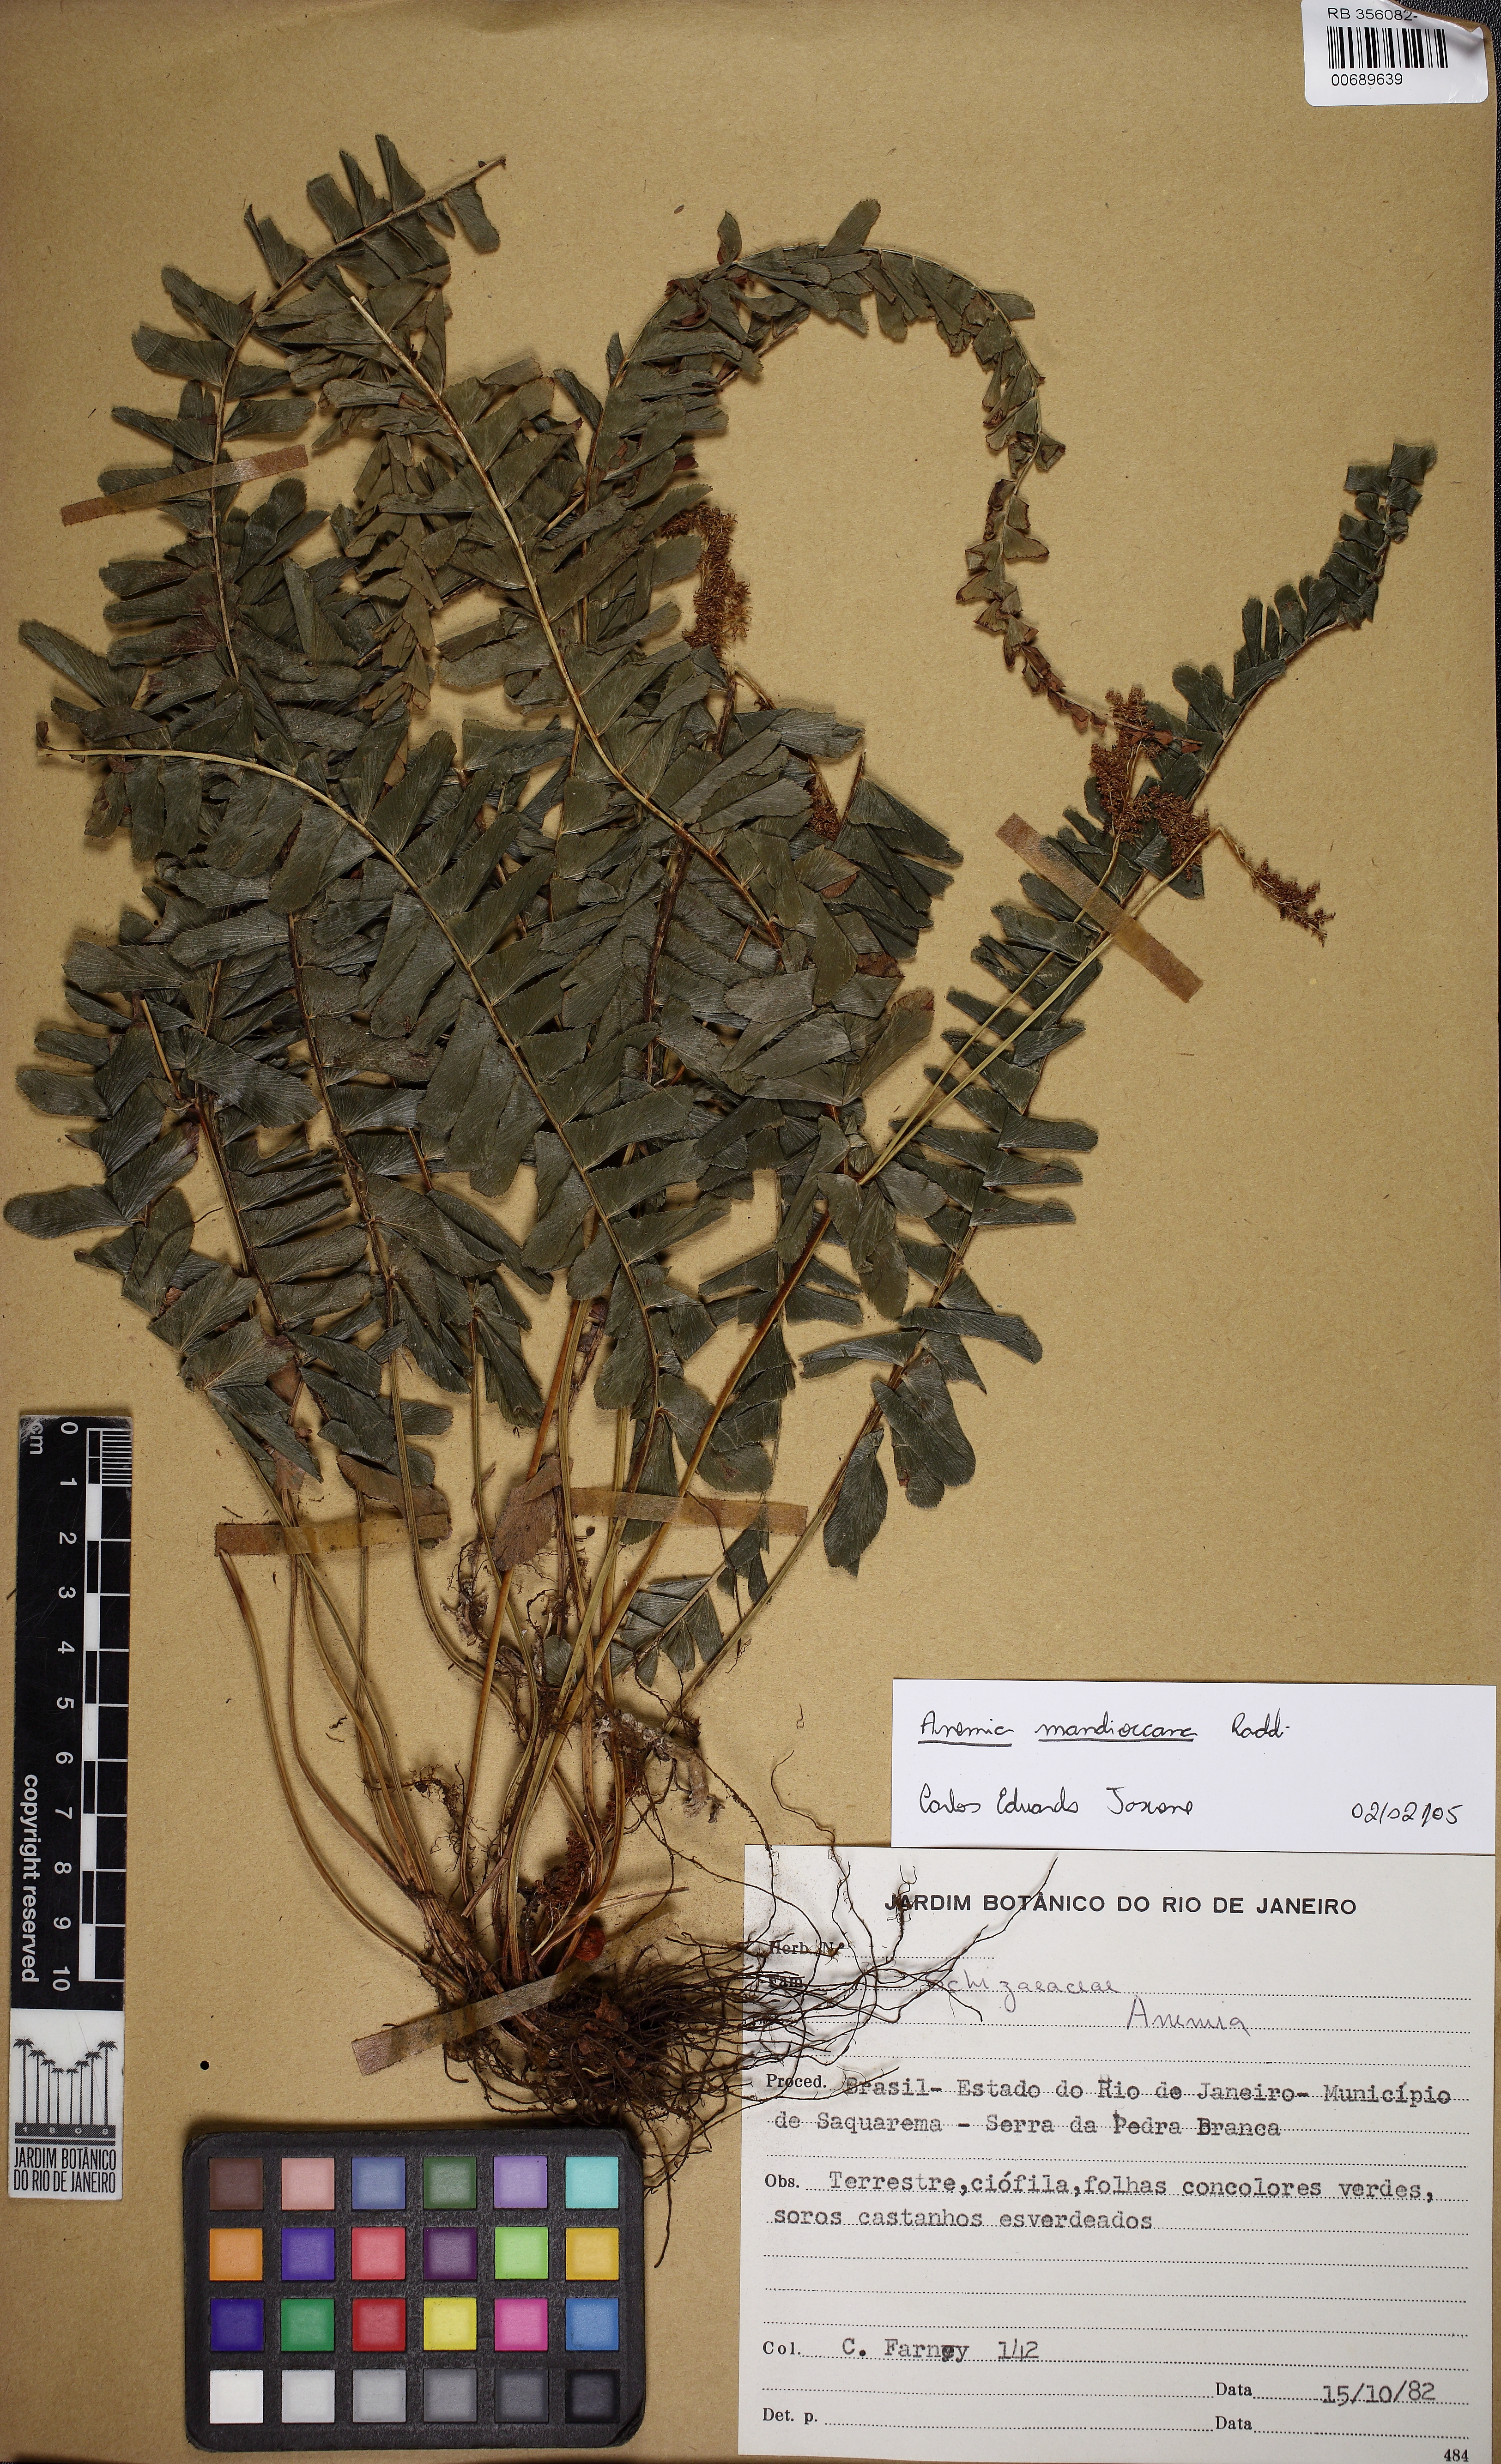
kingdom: Plantae
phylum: Tracheophyta
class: Polypodiopsida
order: Schizaeales
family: Anemiaceae
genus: Anemia
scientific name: Anemia mandiocana
